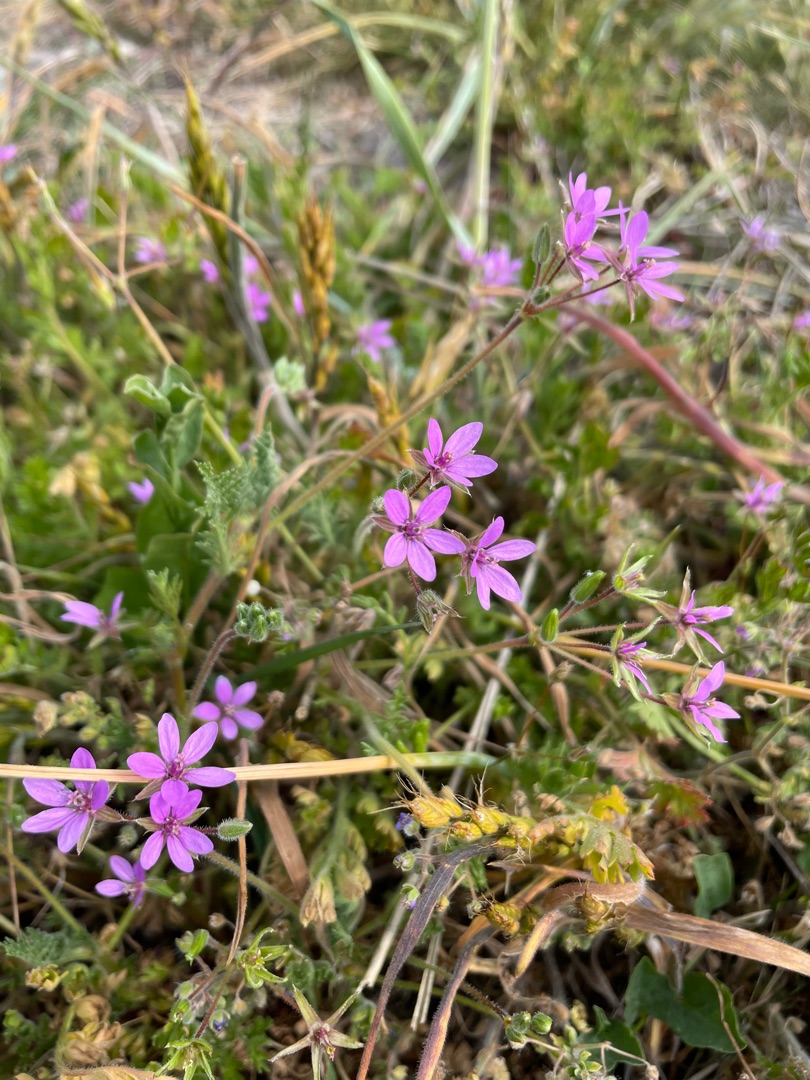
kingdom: Plantae
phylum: Tracheophyta
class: Magnoliopsida
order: Geraniales
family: Geraniaceae
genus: Erodium
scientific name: Erodium cicutarium
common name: Hejrenæb
